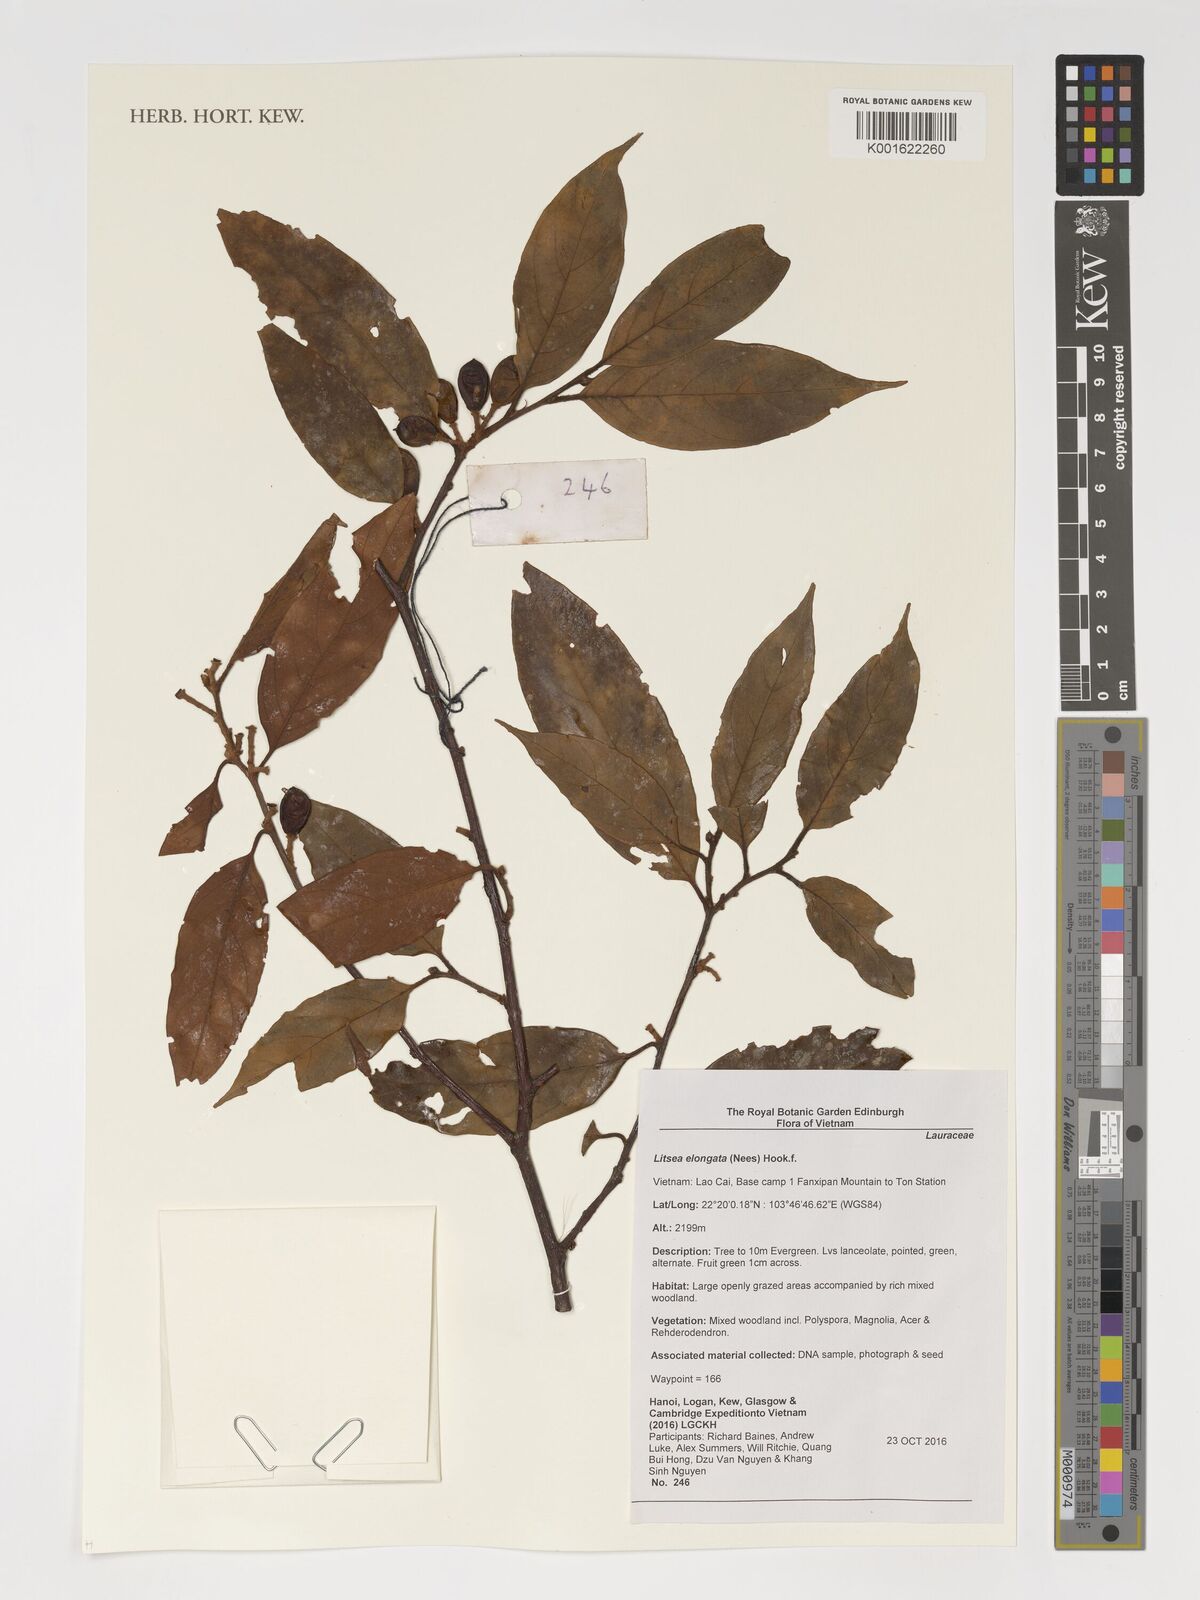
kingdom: Plantae
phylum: Tracheophyta
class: Magnoliopsida
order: Laurales
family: Lauraceae
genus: Litsea
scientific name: Litsea elongata
